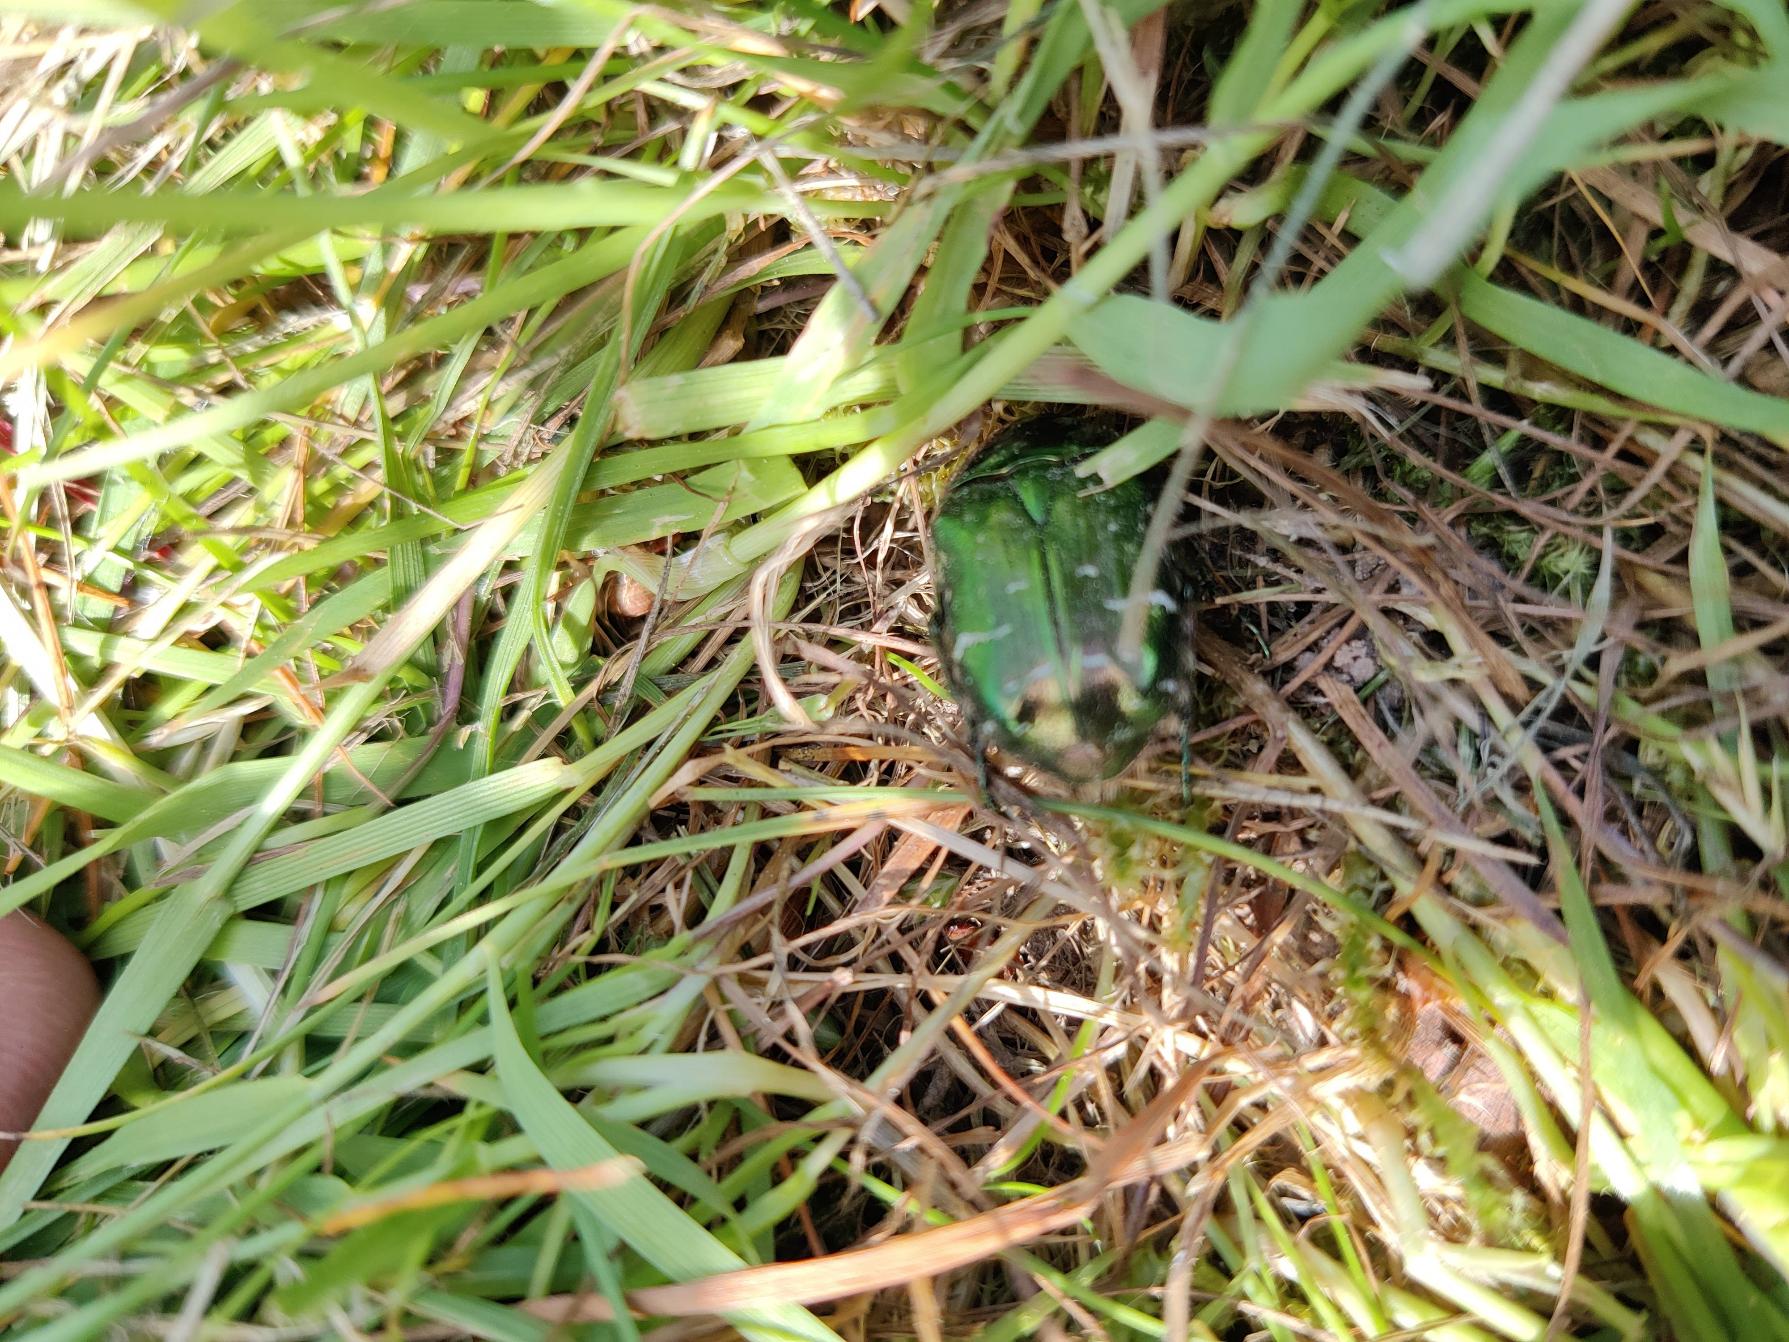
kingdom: Animalia
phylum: Arthropoda
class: Insecta
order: Coleoptera
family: Scarabaeidae
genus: Cetonia
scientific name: Cetonia aurata
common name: Grøn guldbasse
